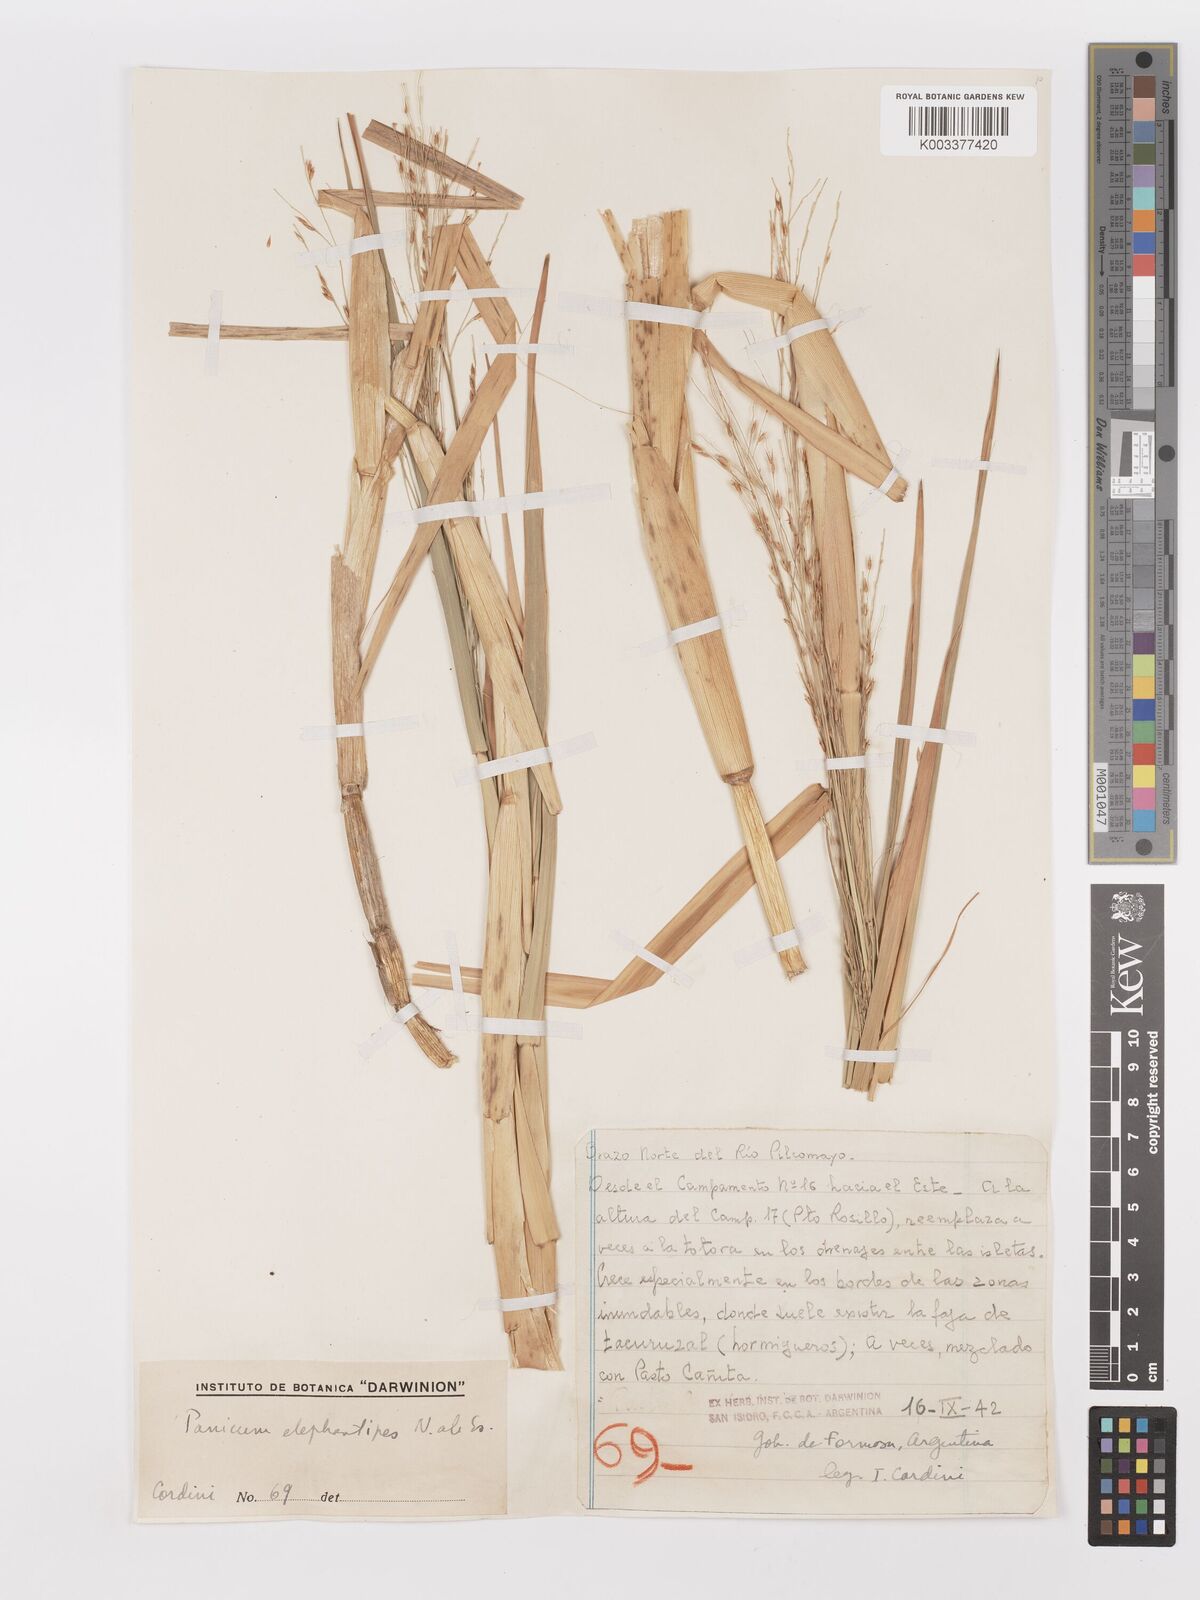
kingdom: Plantae
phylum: Tracheophyta
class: Liliopsida
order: Poales
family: Poaceae
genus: Louisiella
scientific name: Louisiella elephantipes
